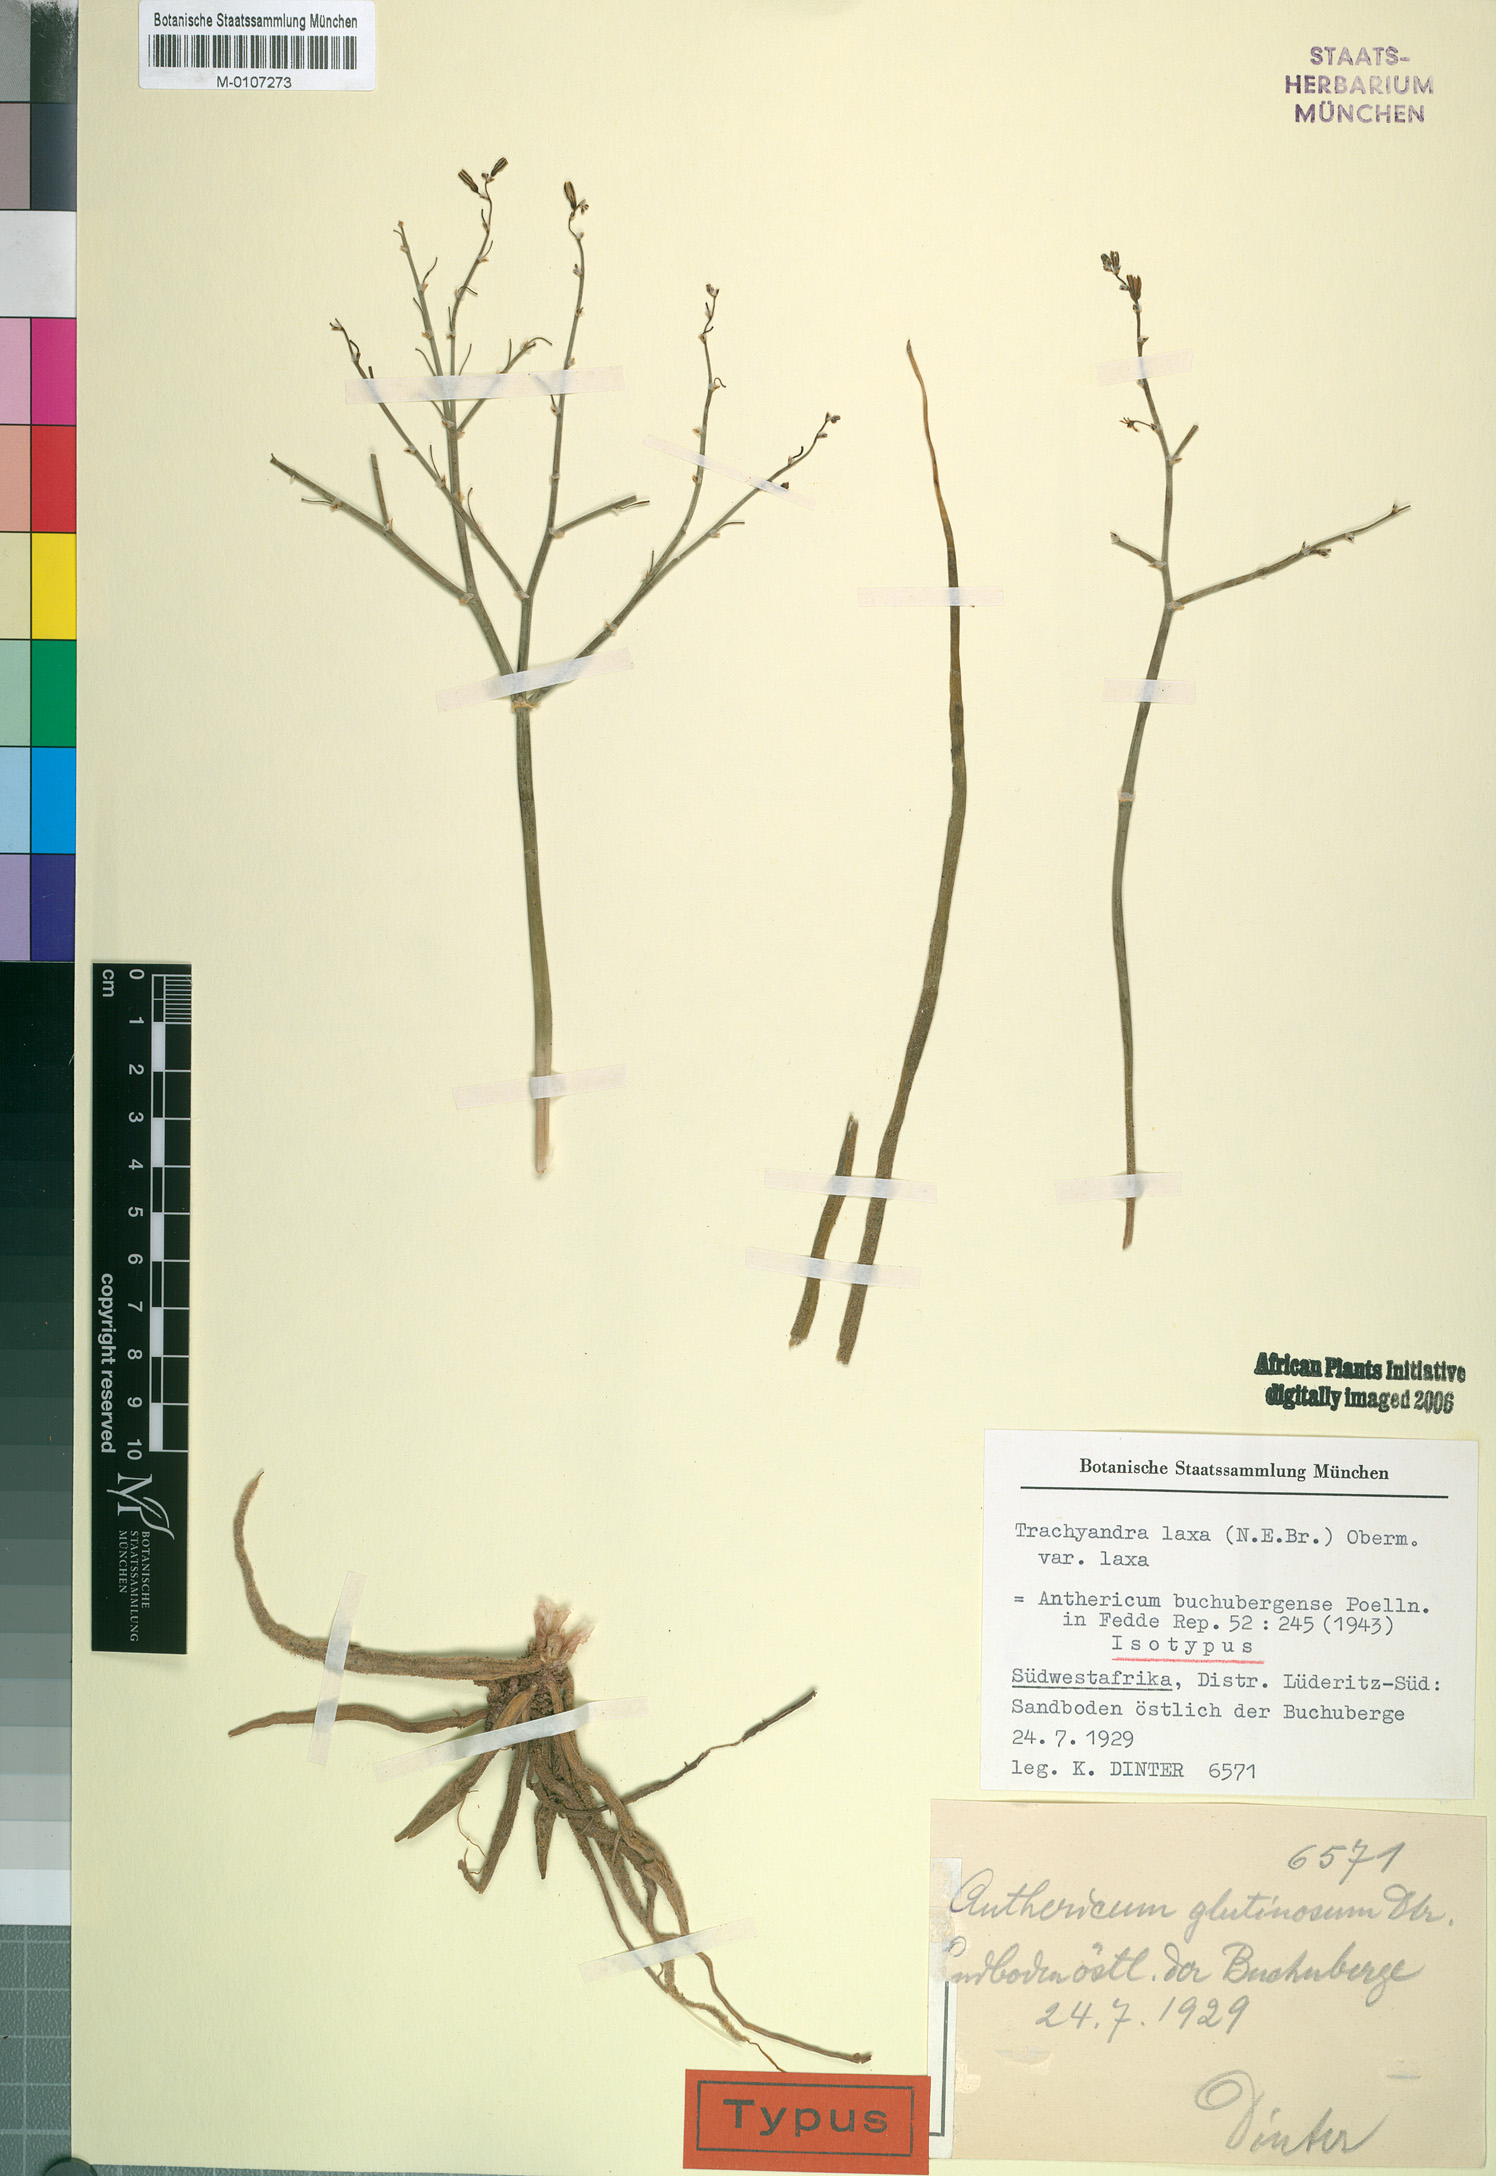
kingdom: Plantae
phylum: Tracheophyta
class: Liliopsida
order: Asparagales
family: Asphodelaceae
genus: Trachyandra
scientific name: Trachyandra laxa
